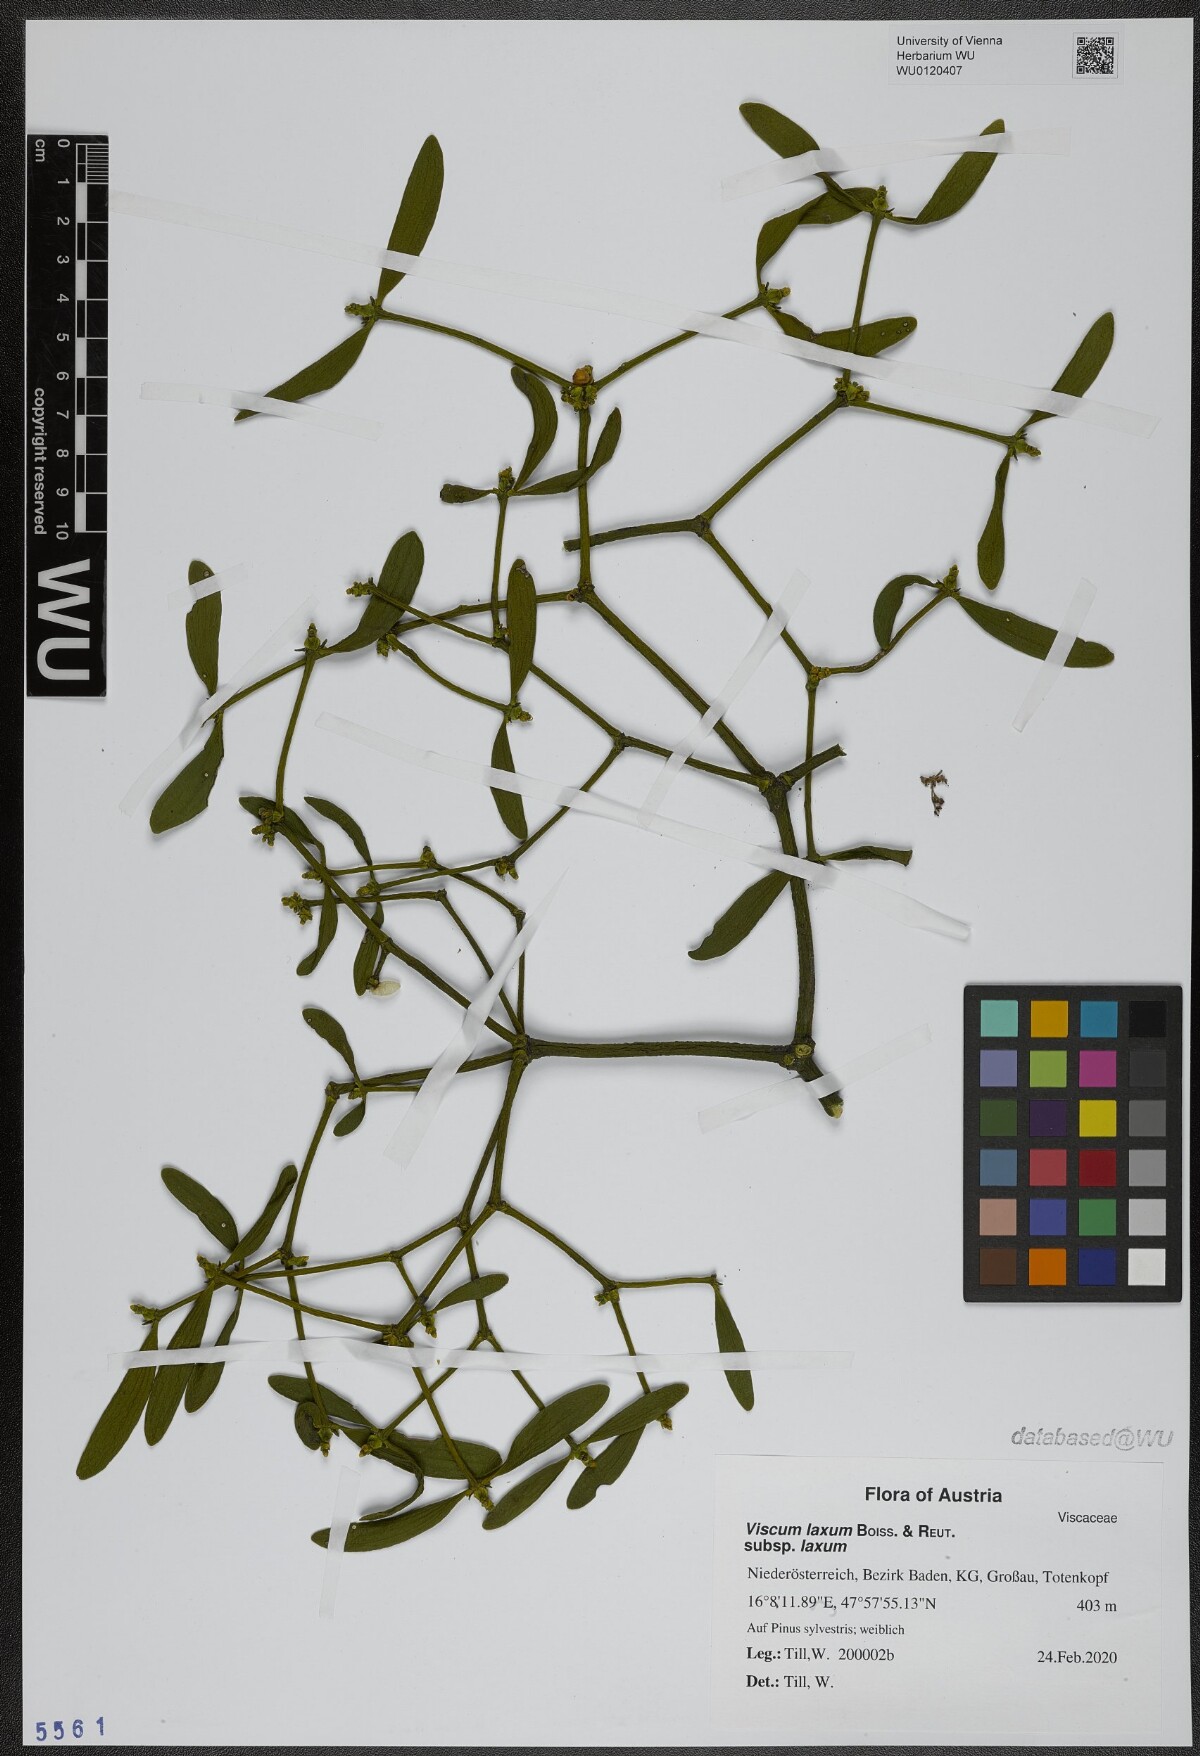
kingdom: Plantae
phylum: Tracheophyta
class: Magnoliopsida
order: Santalales
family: Viscaceae
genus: Viscum
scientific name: Viscum laxum
